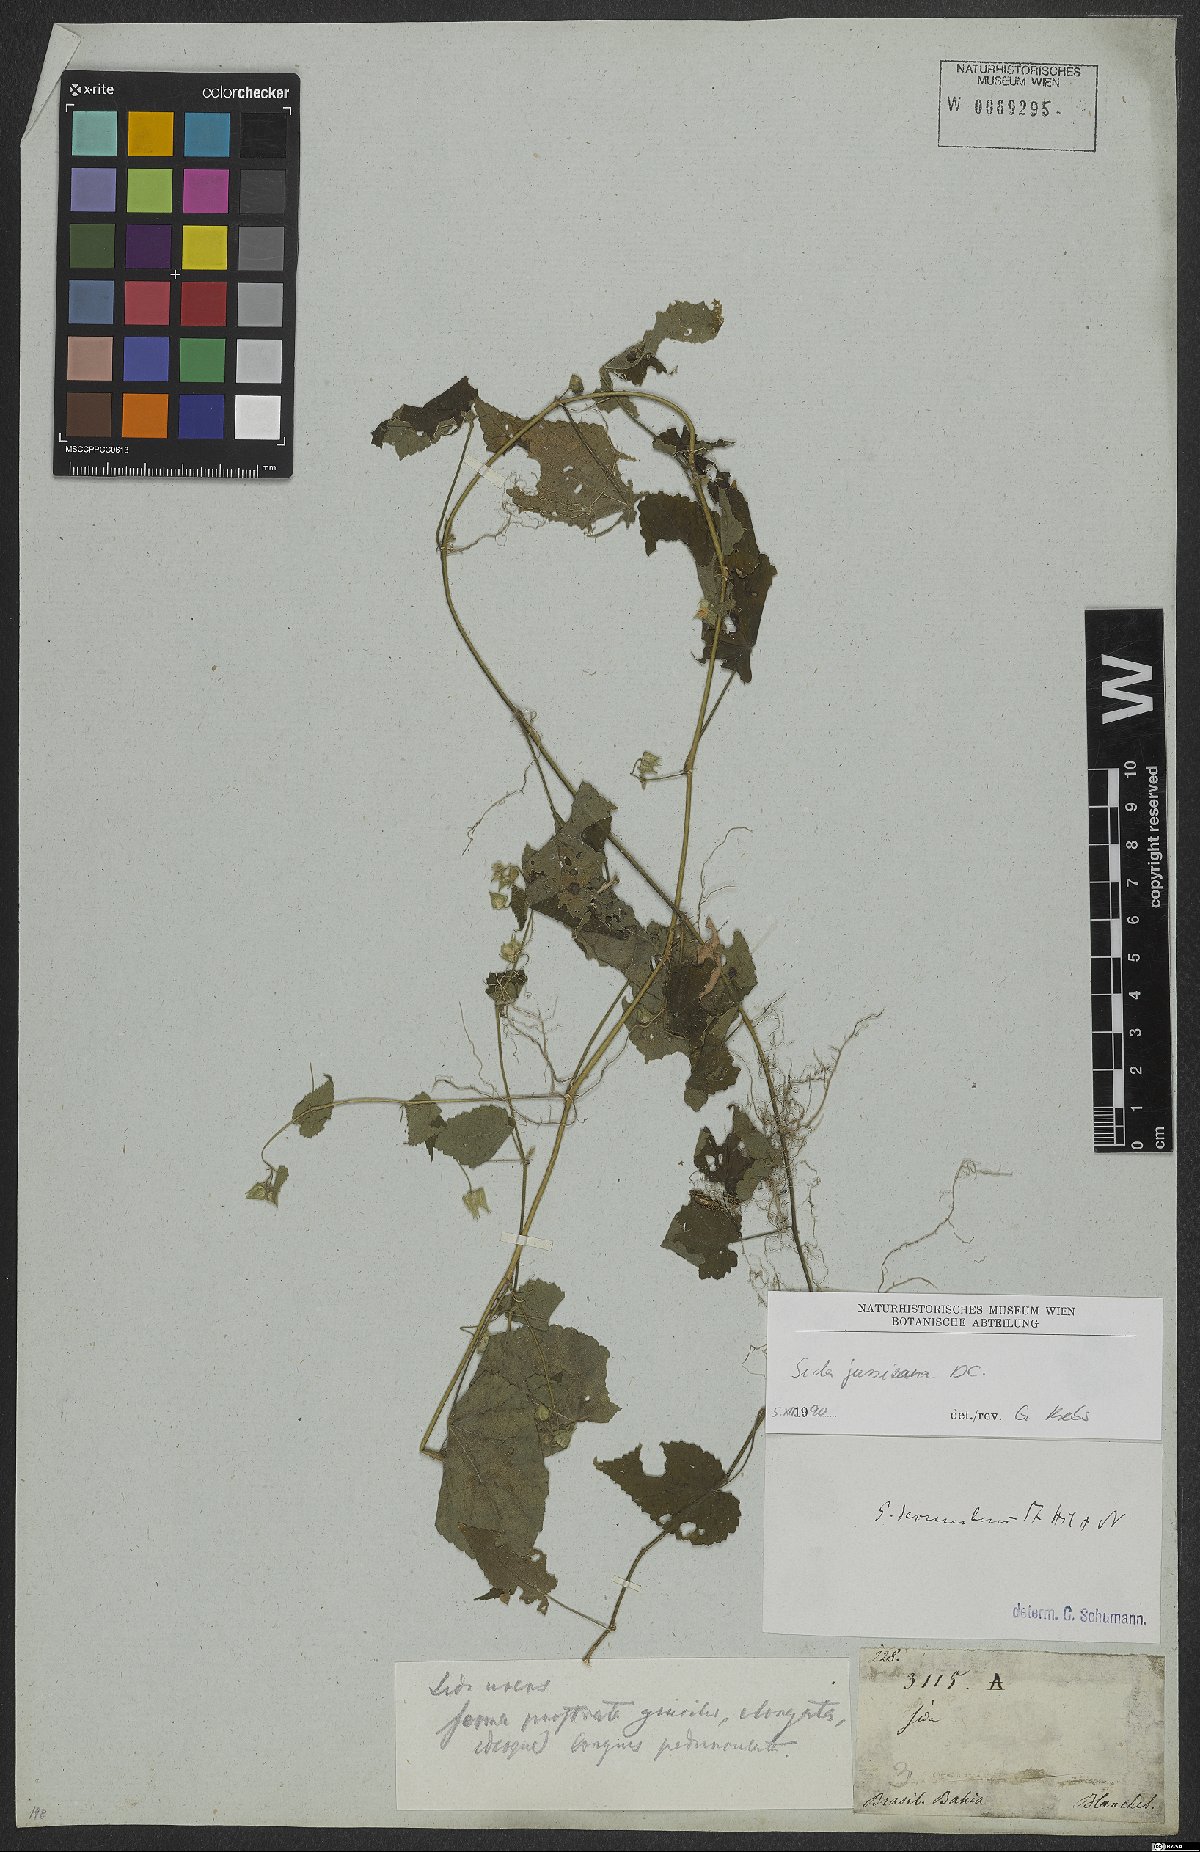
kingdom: Plantae
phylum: Tracheophyta
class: Magnoliopsida
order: Malvales
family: Malvaceae
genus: Sida
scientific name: Sida jussiaeana
